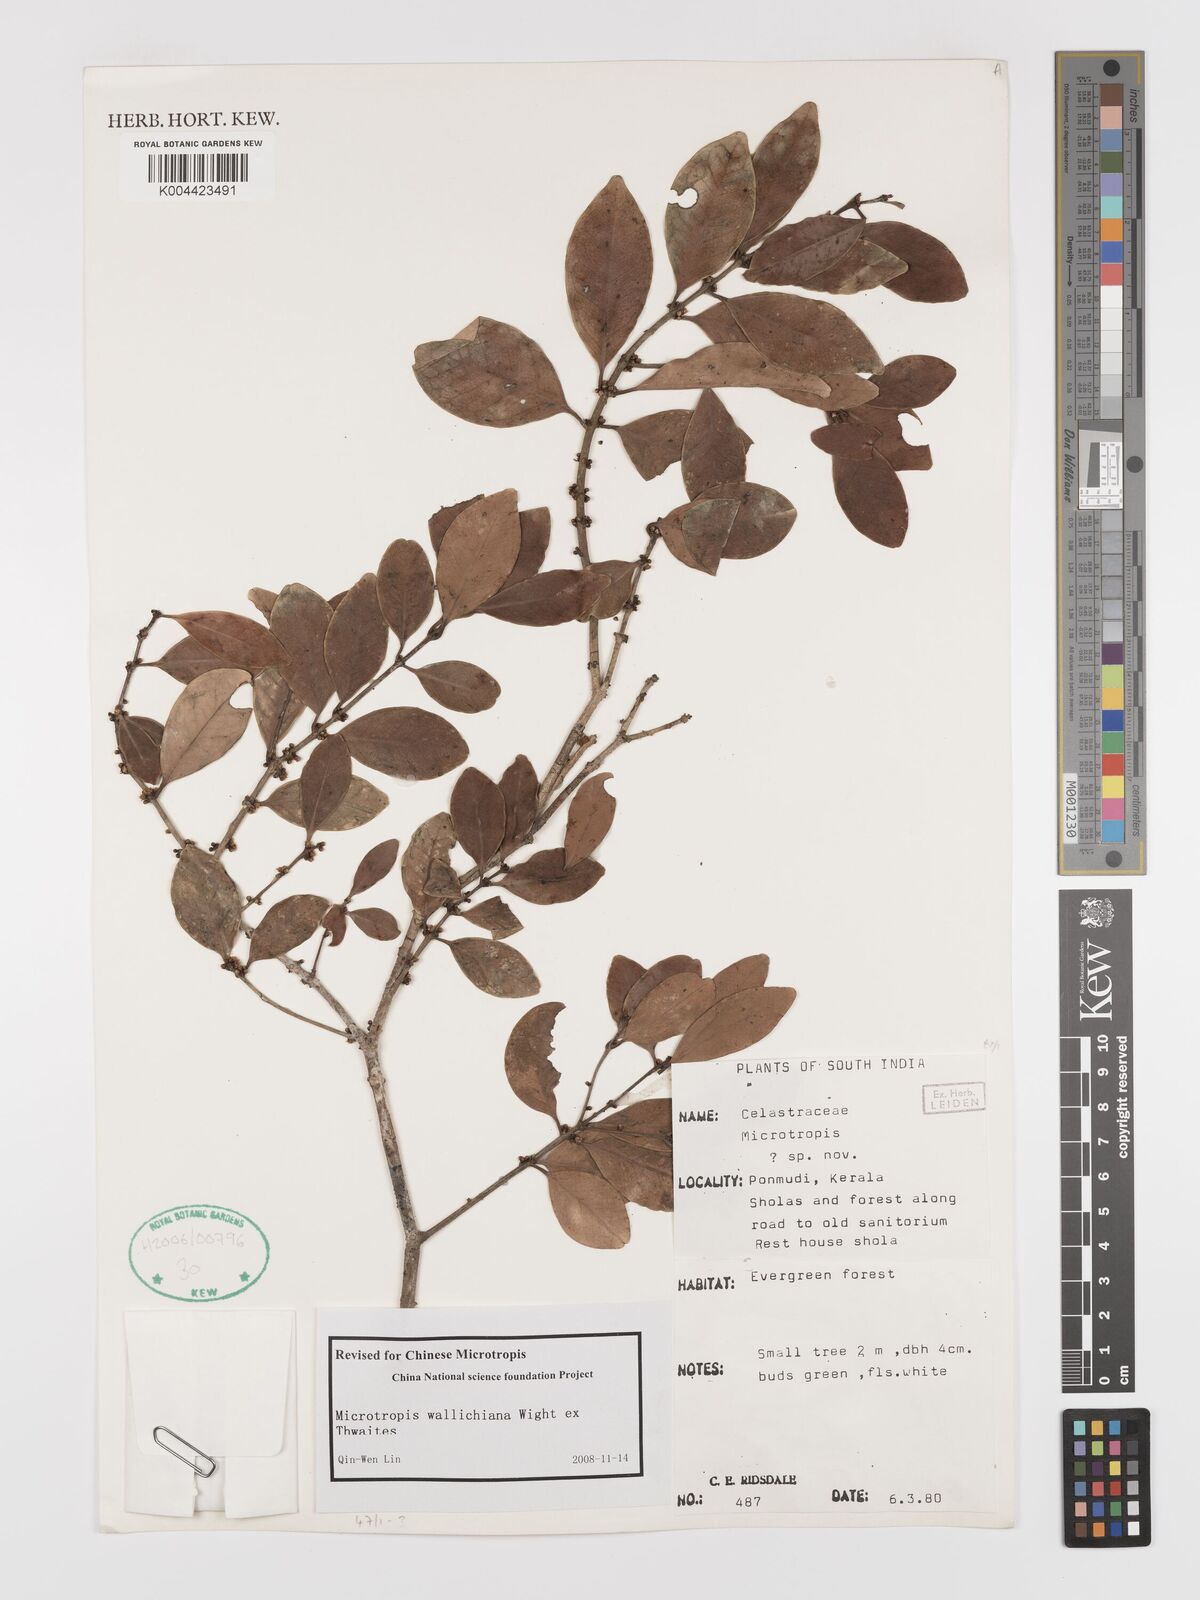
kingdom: Plantae
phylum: Tracheophyta
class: Magnoliopsida
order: Celastrales
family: Celastraceae
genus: Microtropis
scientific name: Microtropis wallichiana
